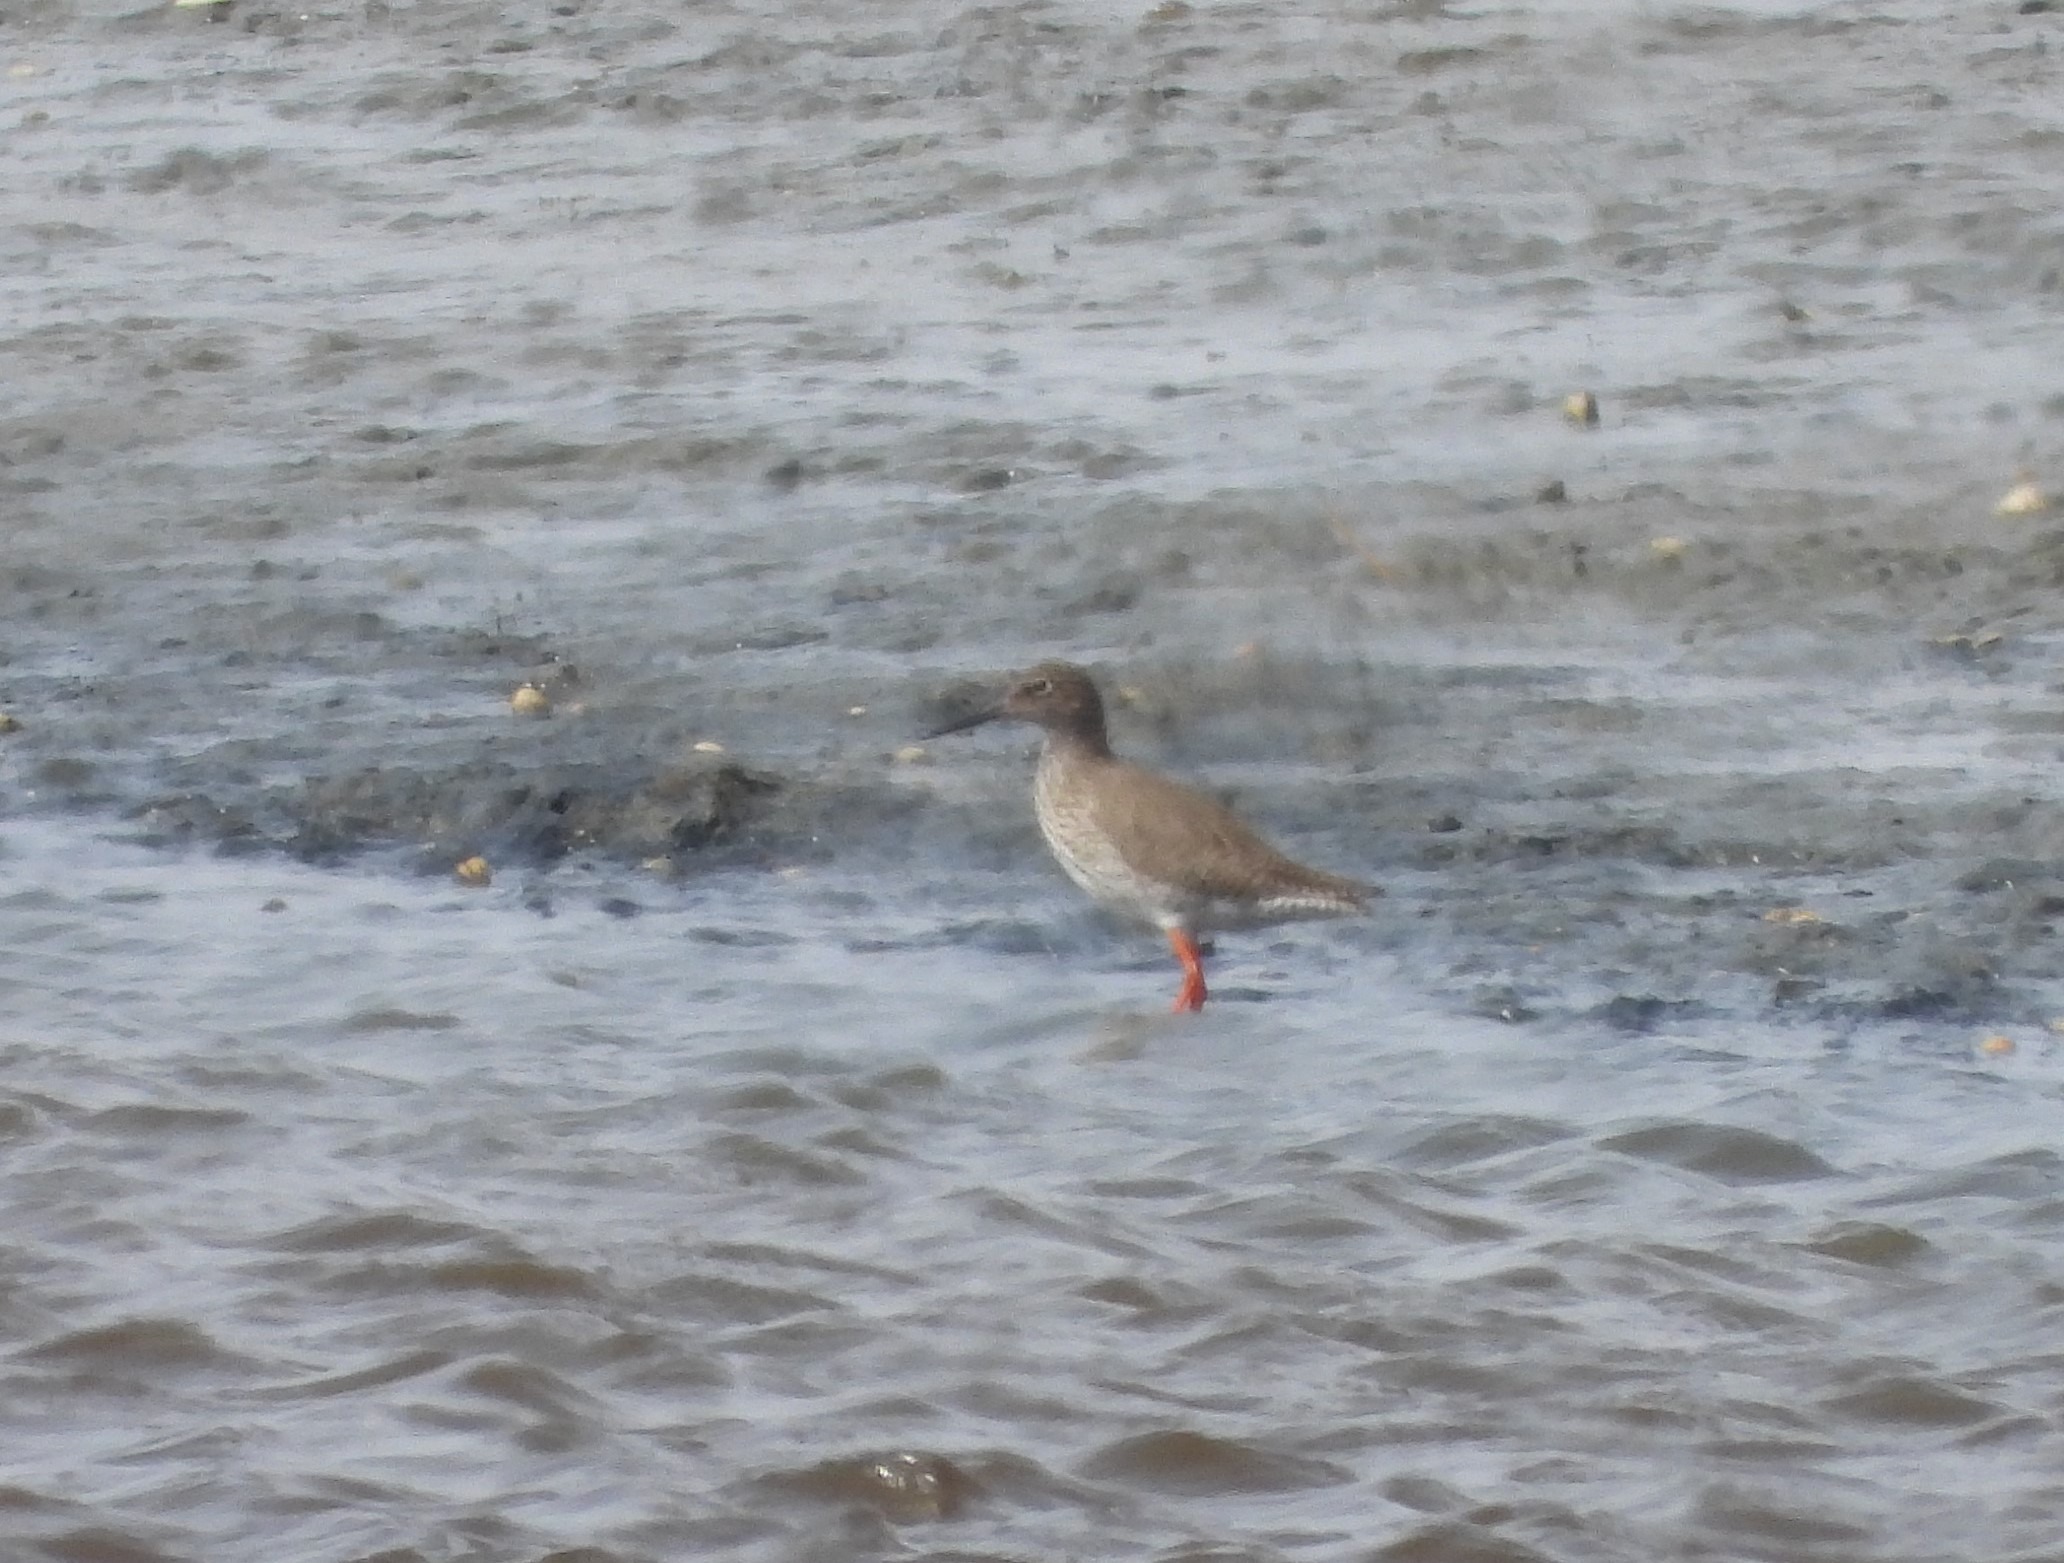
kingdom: Animalia
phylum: Chordata
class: Aves
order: Charadriiformes
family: Scolopacidae
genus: Tringa
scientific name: Tringa totanus
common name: Rødben
